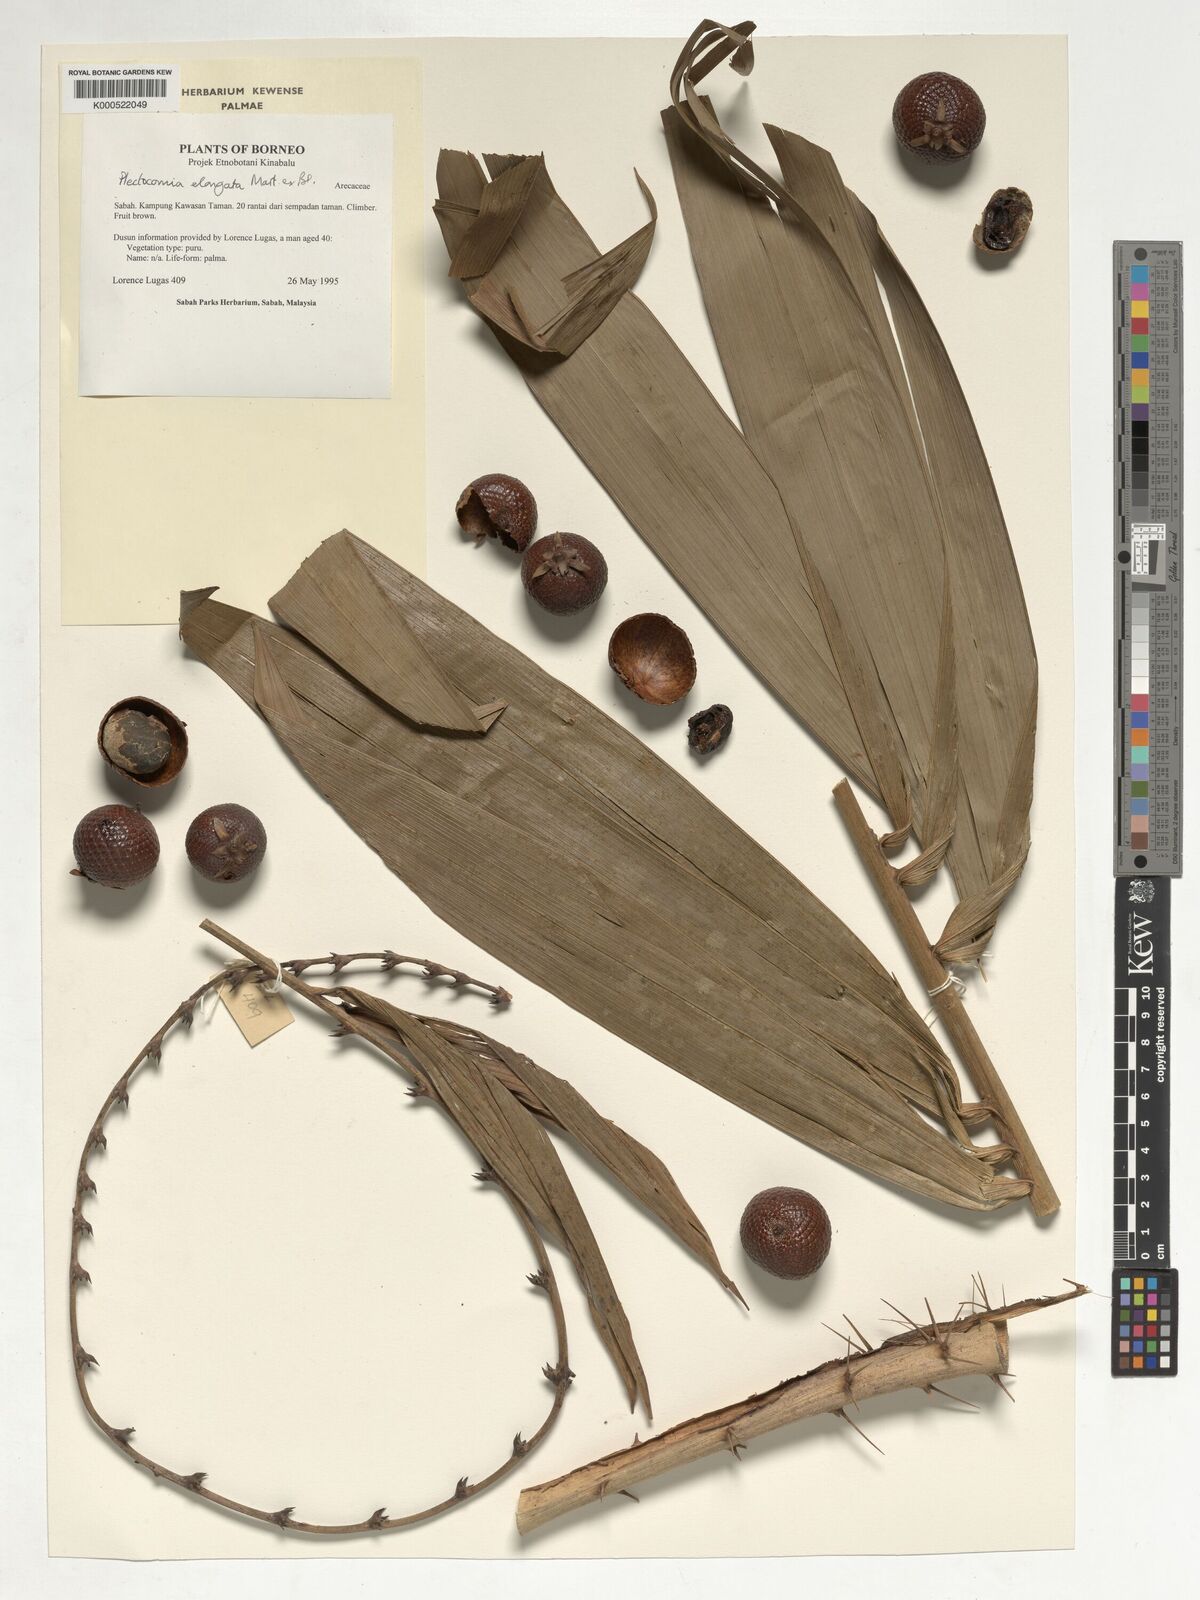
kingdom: Plantae
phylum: Tracheophyta
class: Liliopsida
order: Arecales
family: Arecaceae
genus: Plectocomia
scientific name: Plectocomia elongata
